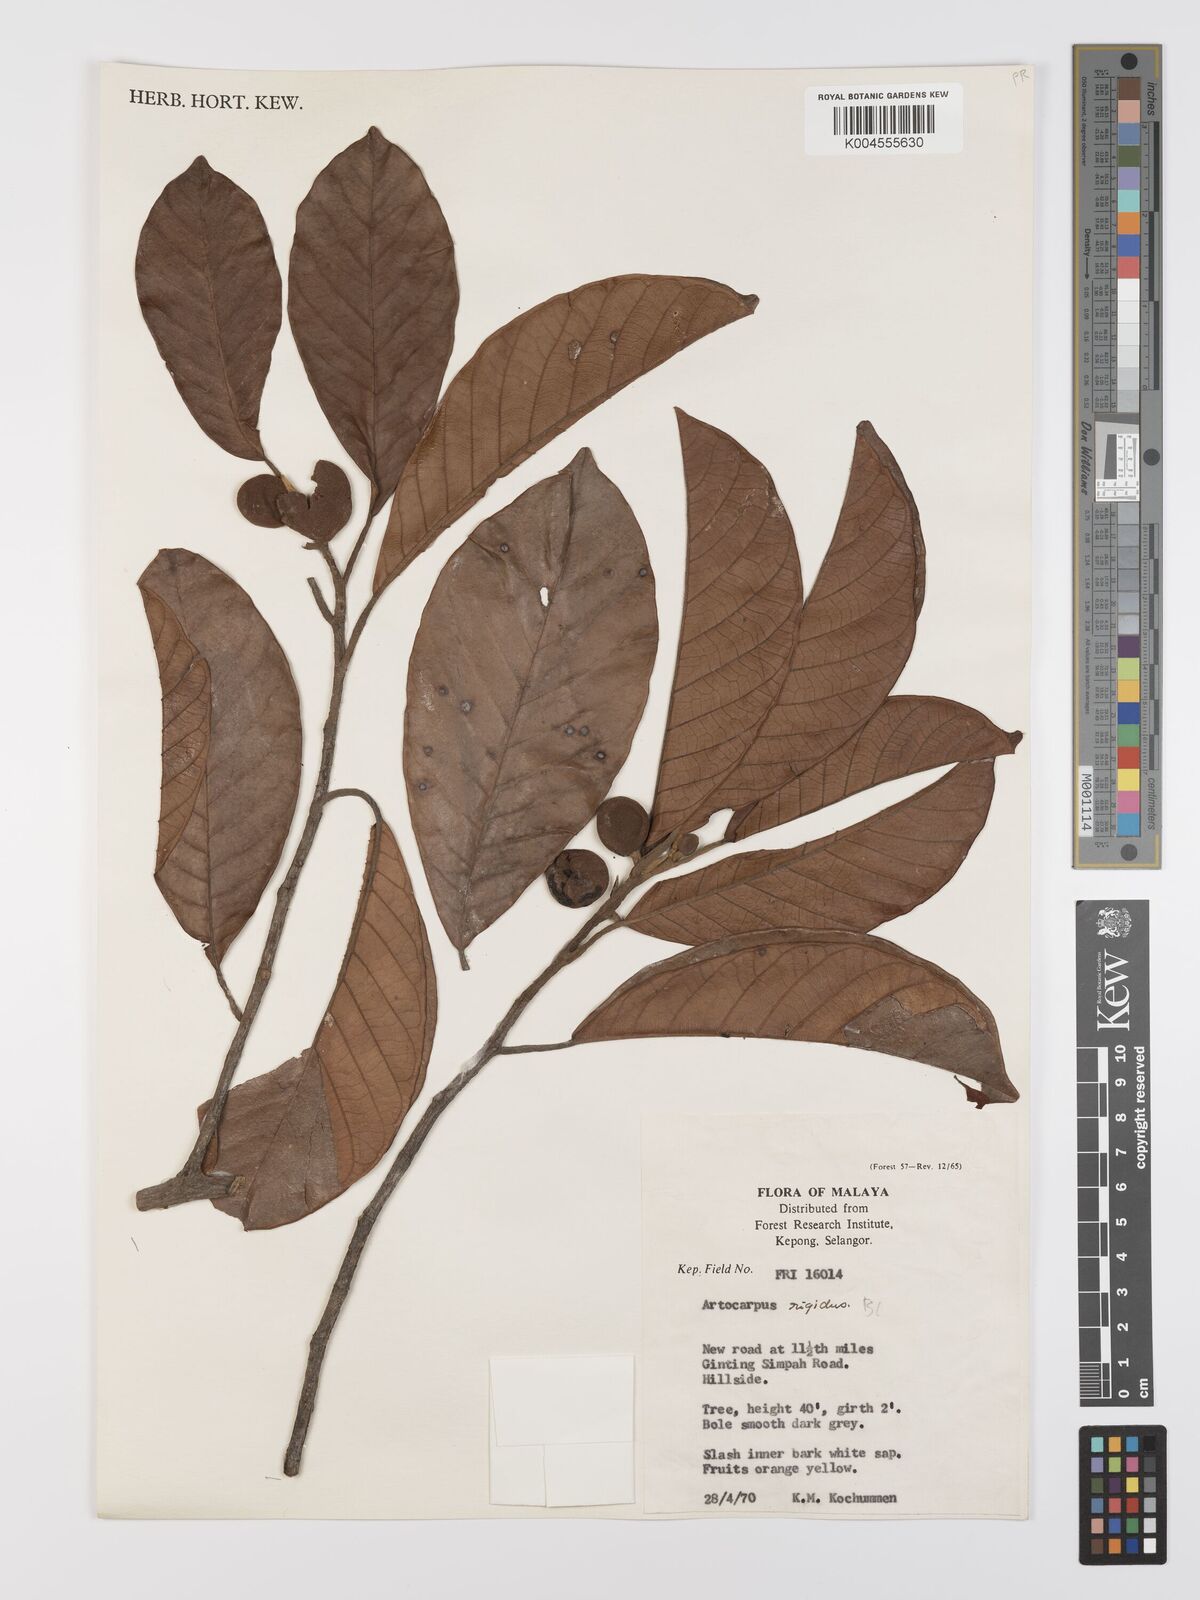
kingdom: Plantae
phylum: Tracheophyta
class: Magnoliopsida
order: Rosales
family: Moraceae
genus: Artocarpus
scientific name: Artocarpus
